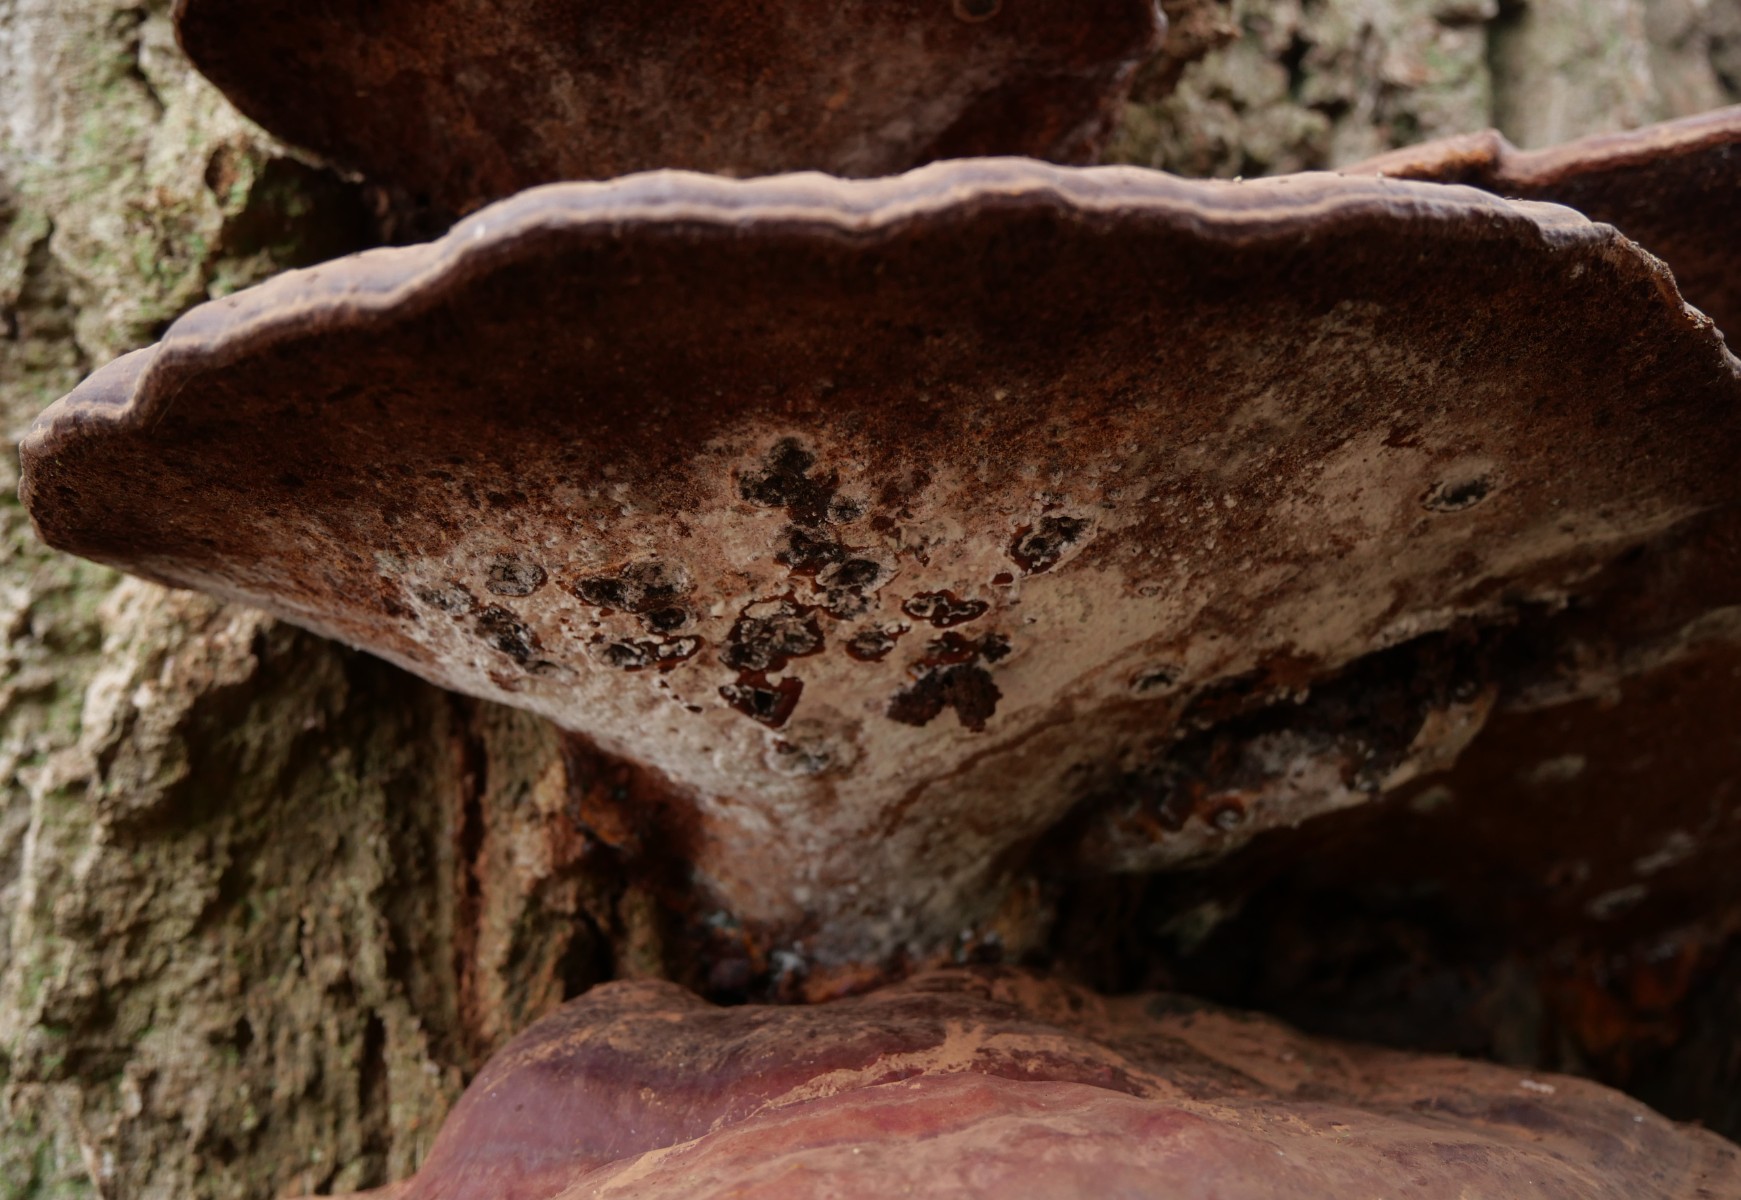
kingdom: Fungi
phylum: Basidiomycota
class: Agaricomycetes
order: Polyporales
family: Polyporaceae
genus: Ganoderma
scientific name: Ganoderma resinaceum
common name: gyldenbrun lakporesvamp
